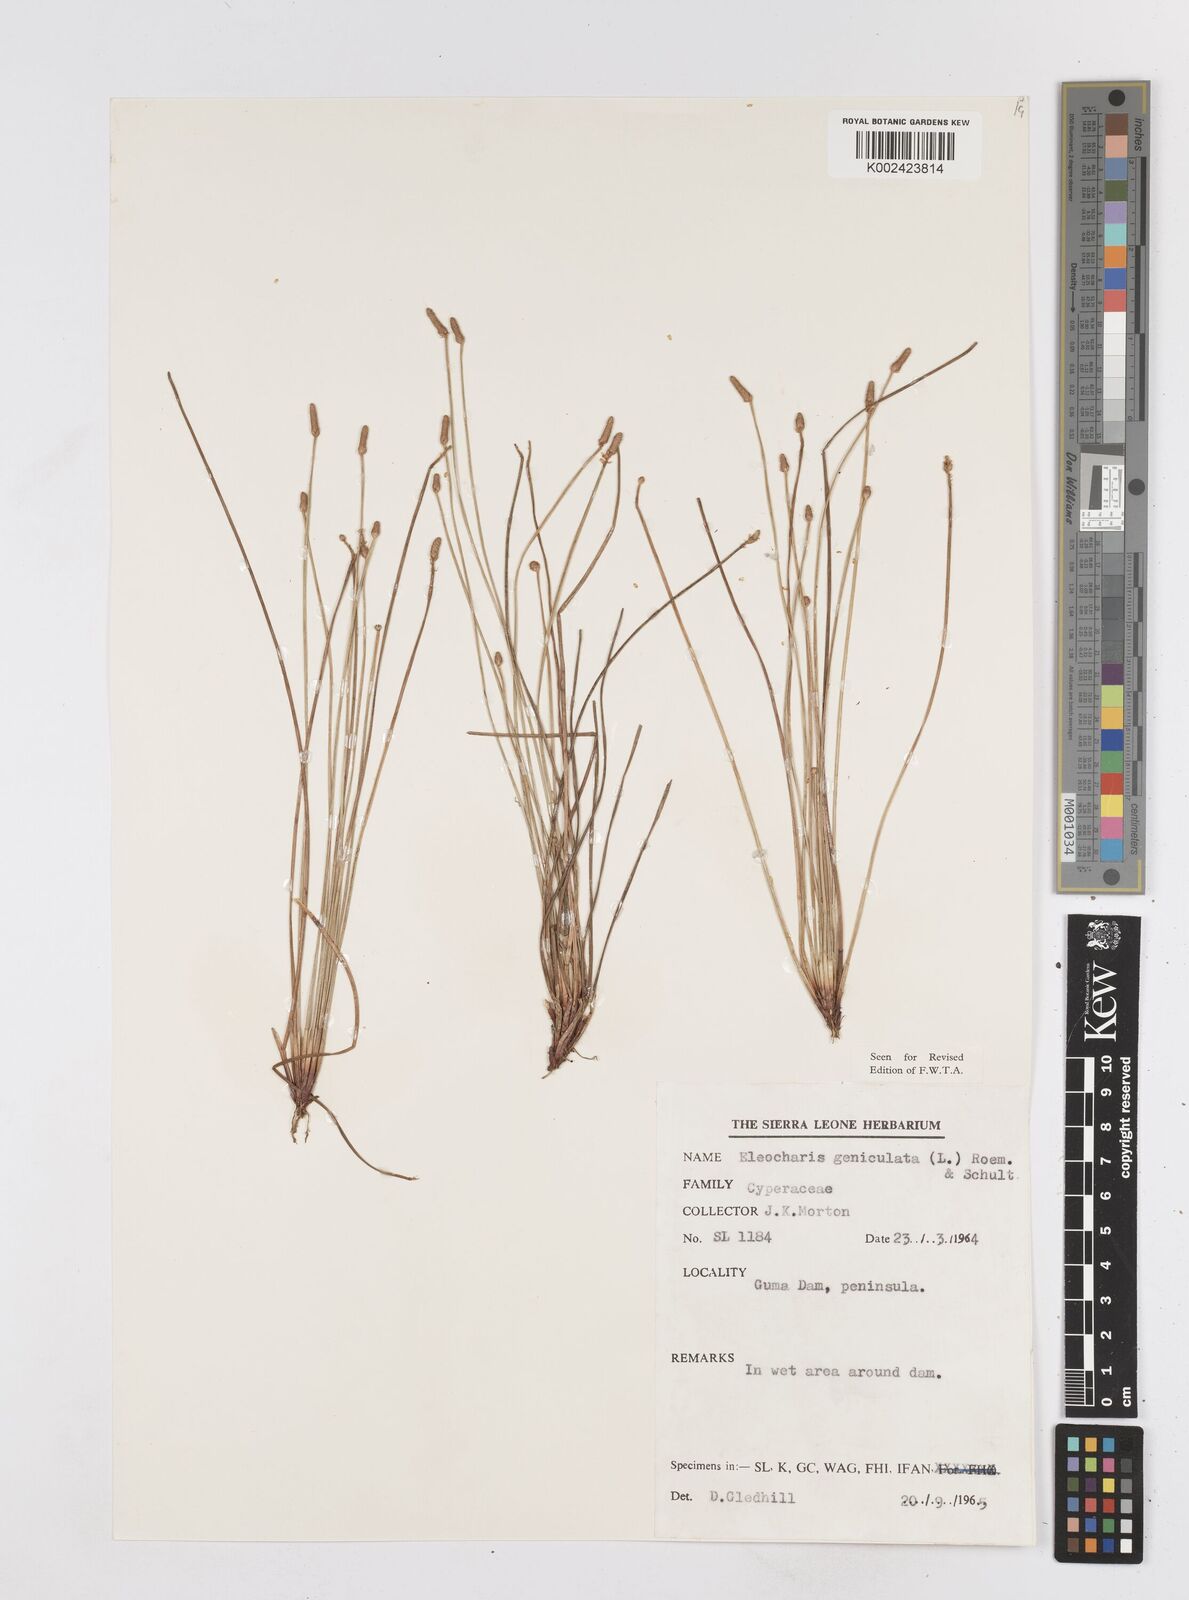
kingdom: Plantae
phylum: Tracheophyta
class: Liliopsida
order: Poales
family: Cyperaceae
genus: Eleocharis
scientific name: Eleocharis geniculata
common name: Canada spikesedge
